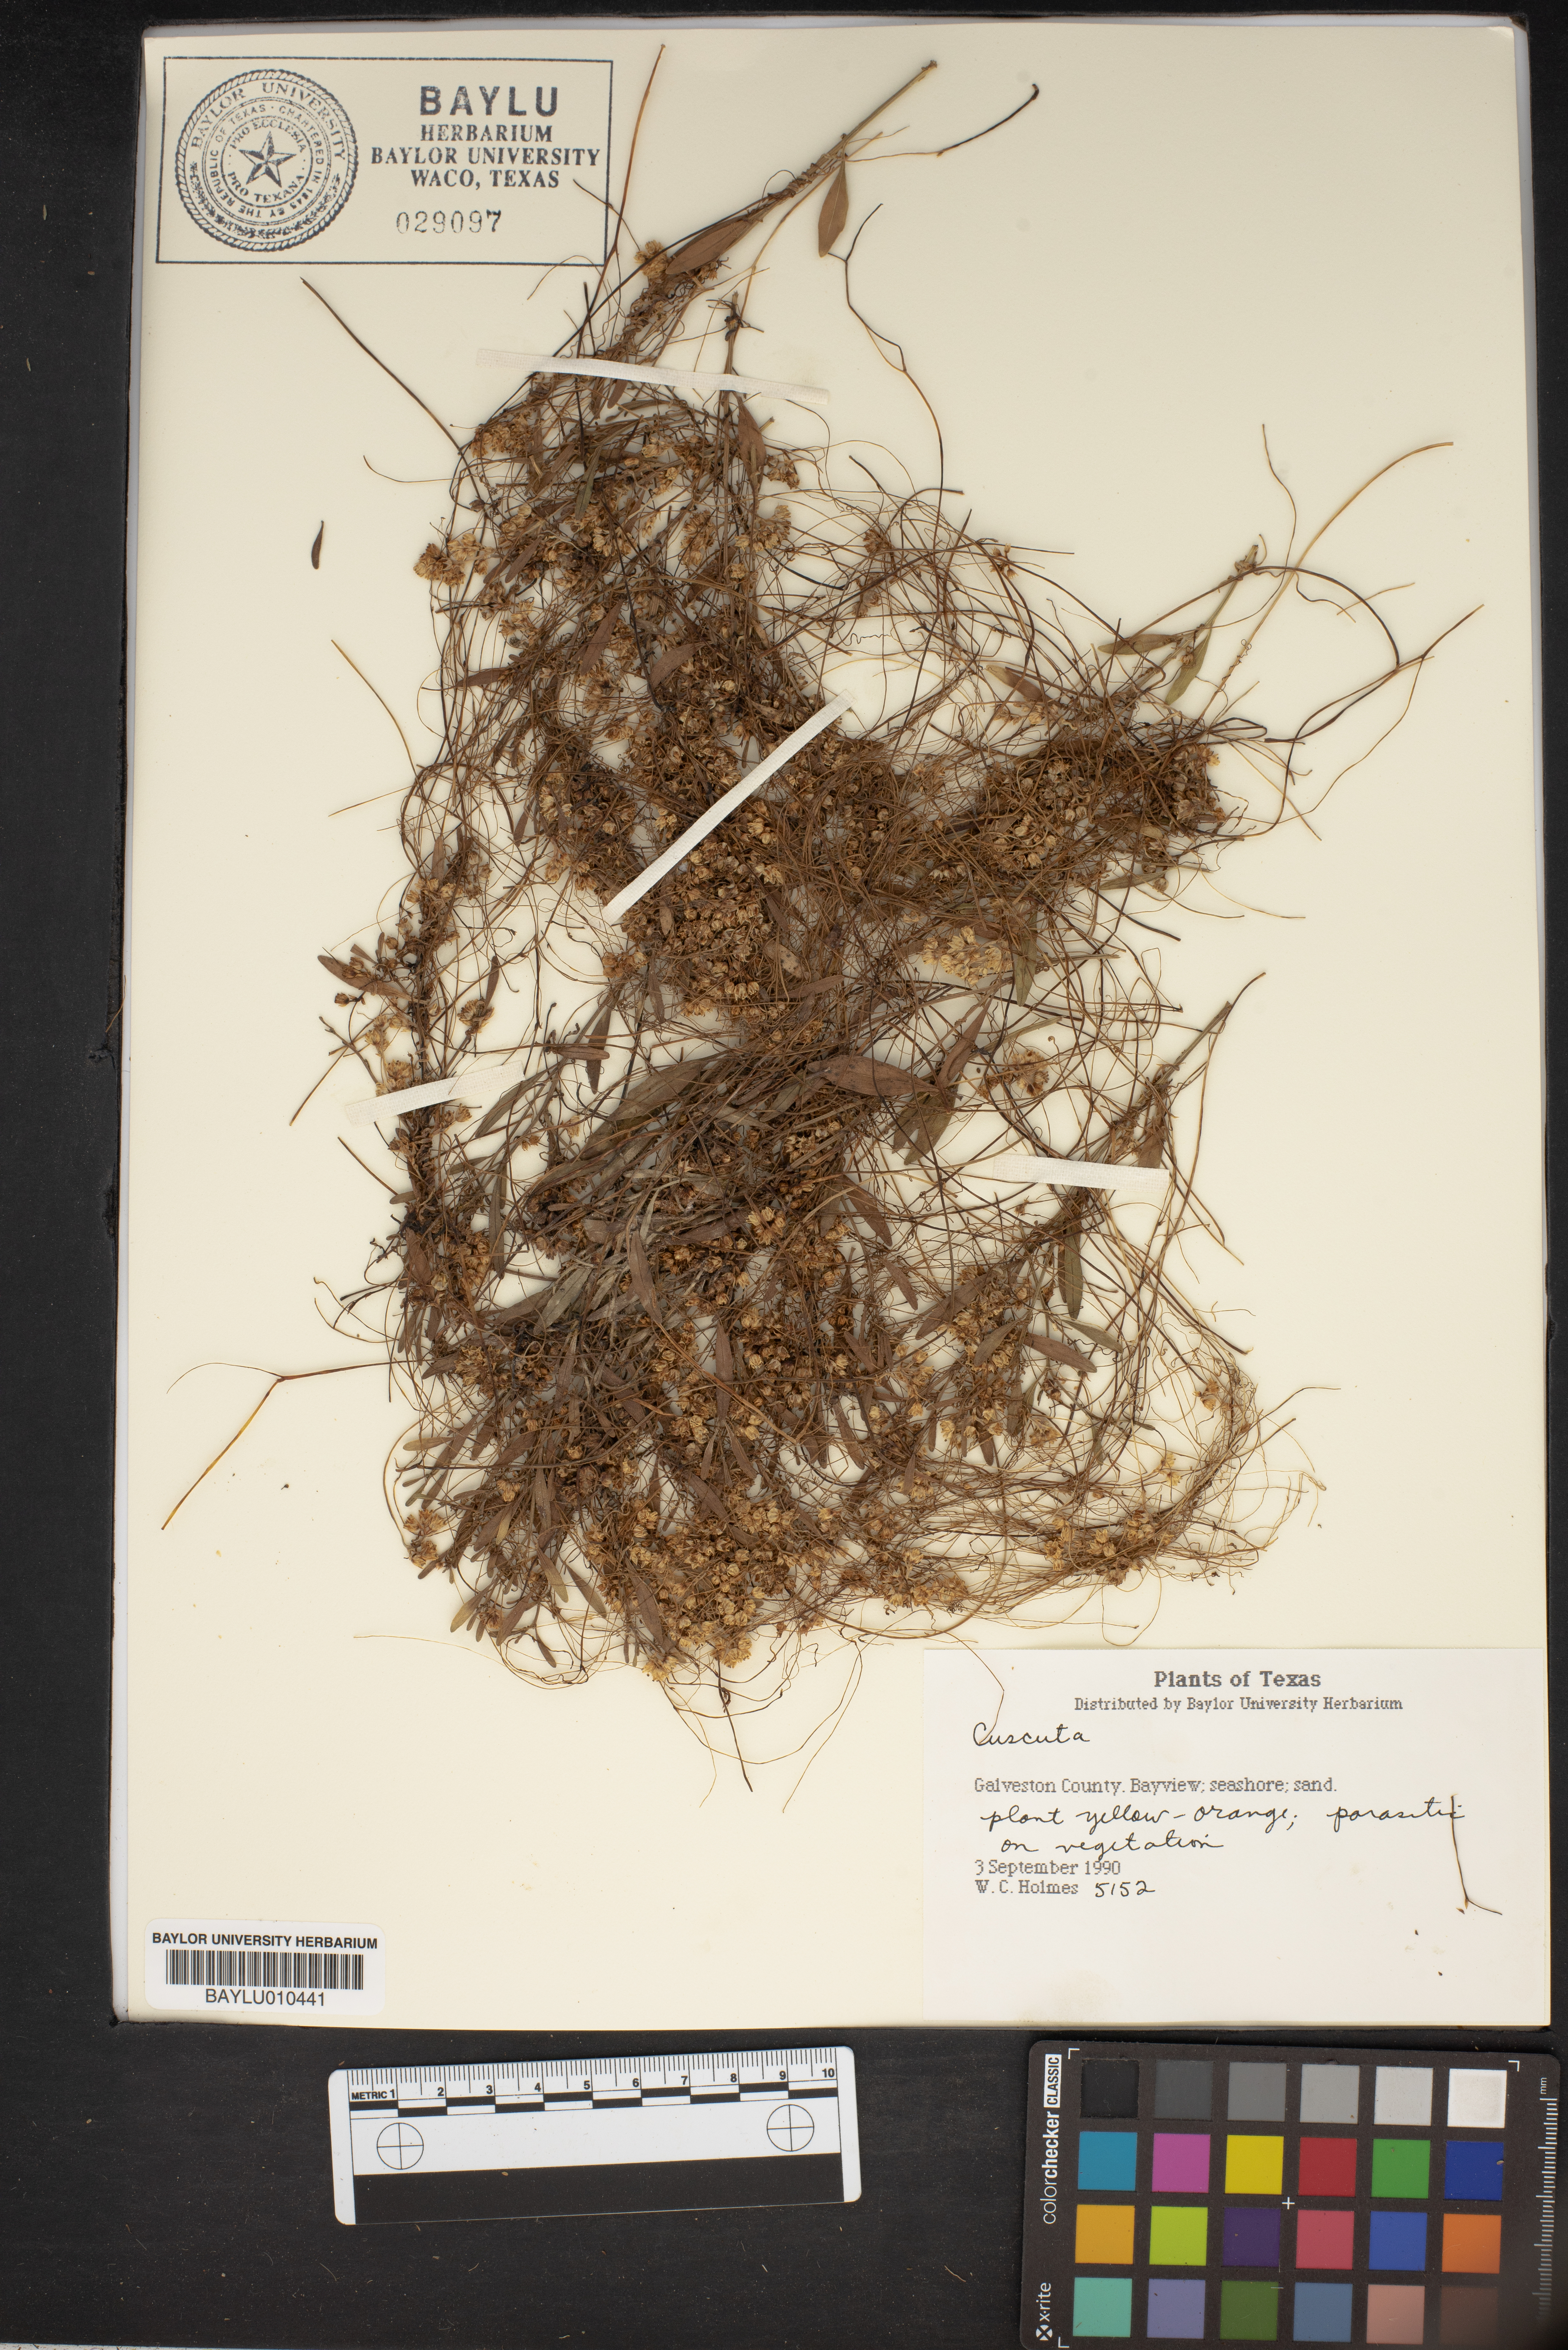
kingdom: Plantae
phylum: Tracheophyta
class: Magnoliopsida
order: Solanales
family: Convolvulaceae
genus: Cuscuta
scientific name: Cuscuta
